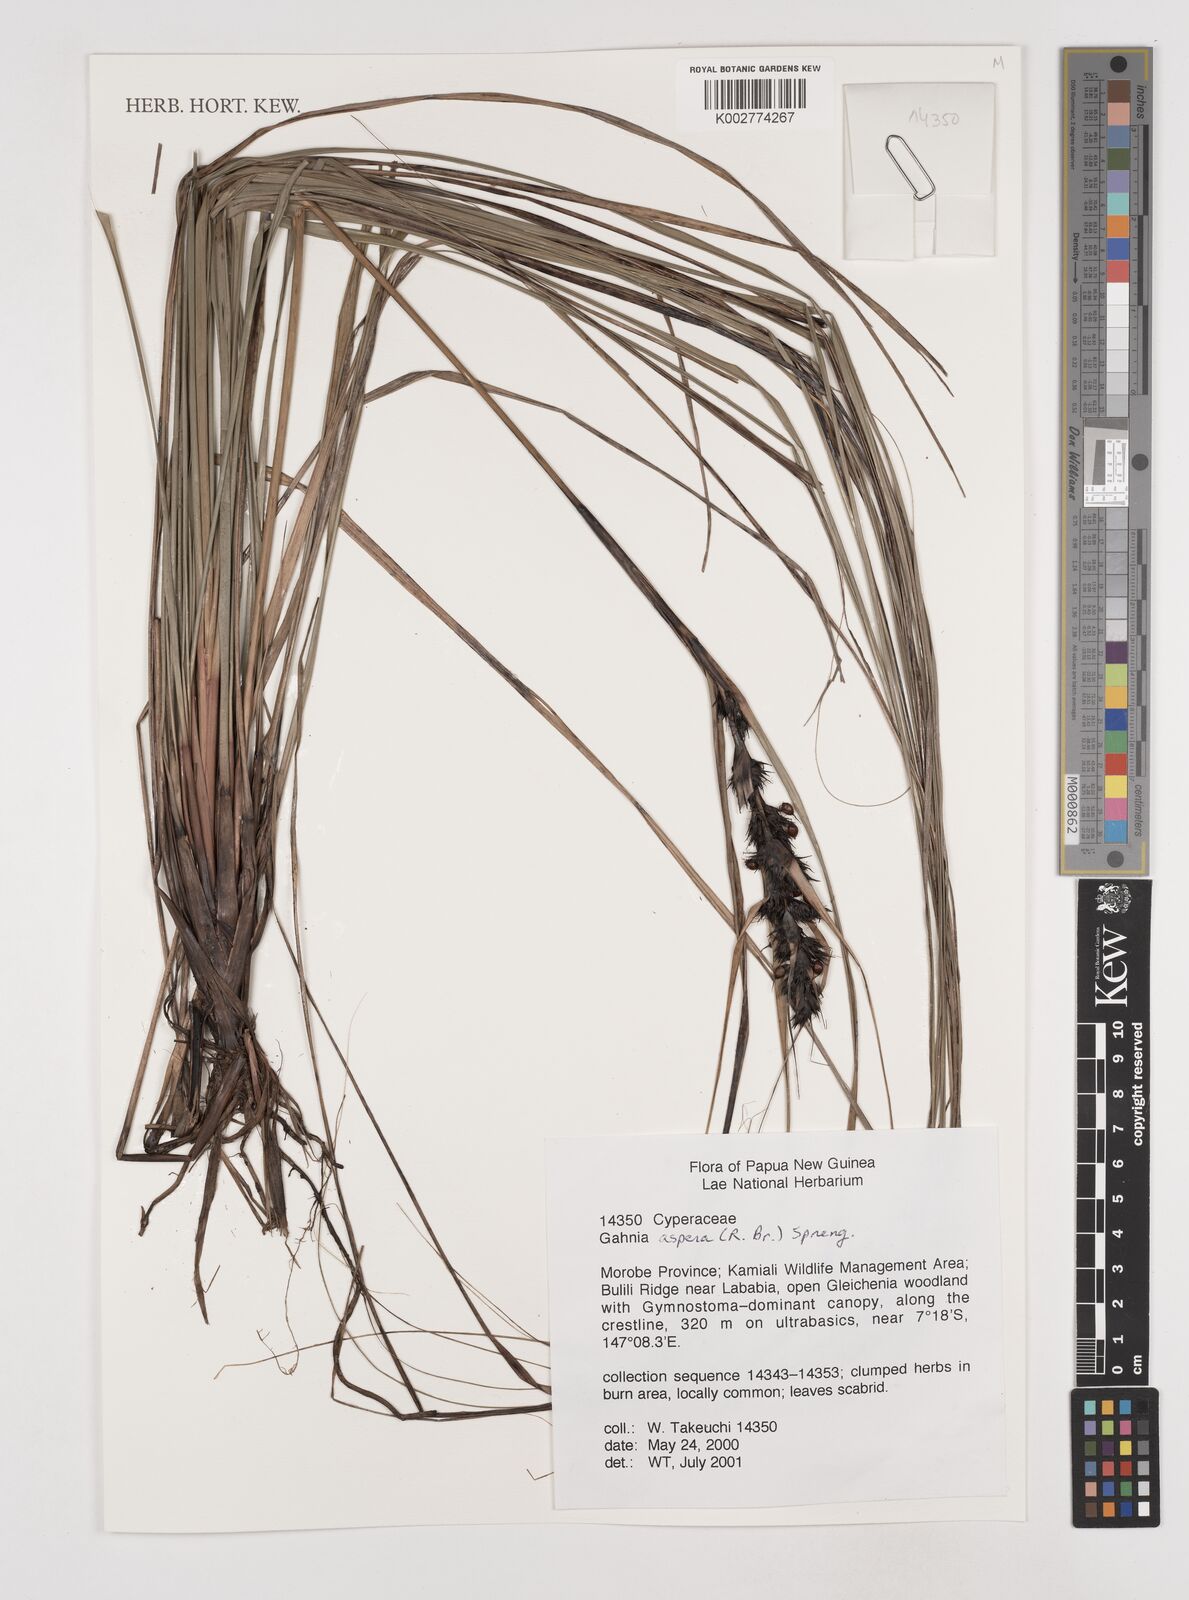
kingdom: Plantae
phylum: Tracheophyta
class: Liliopsida
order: Poales
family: Cyperaceae
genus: Gahnia
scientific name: Gahnia aspera
